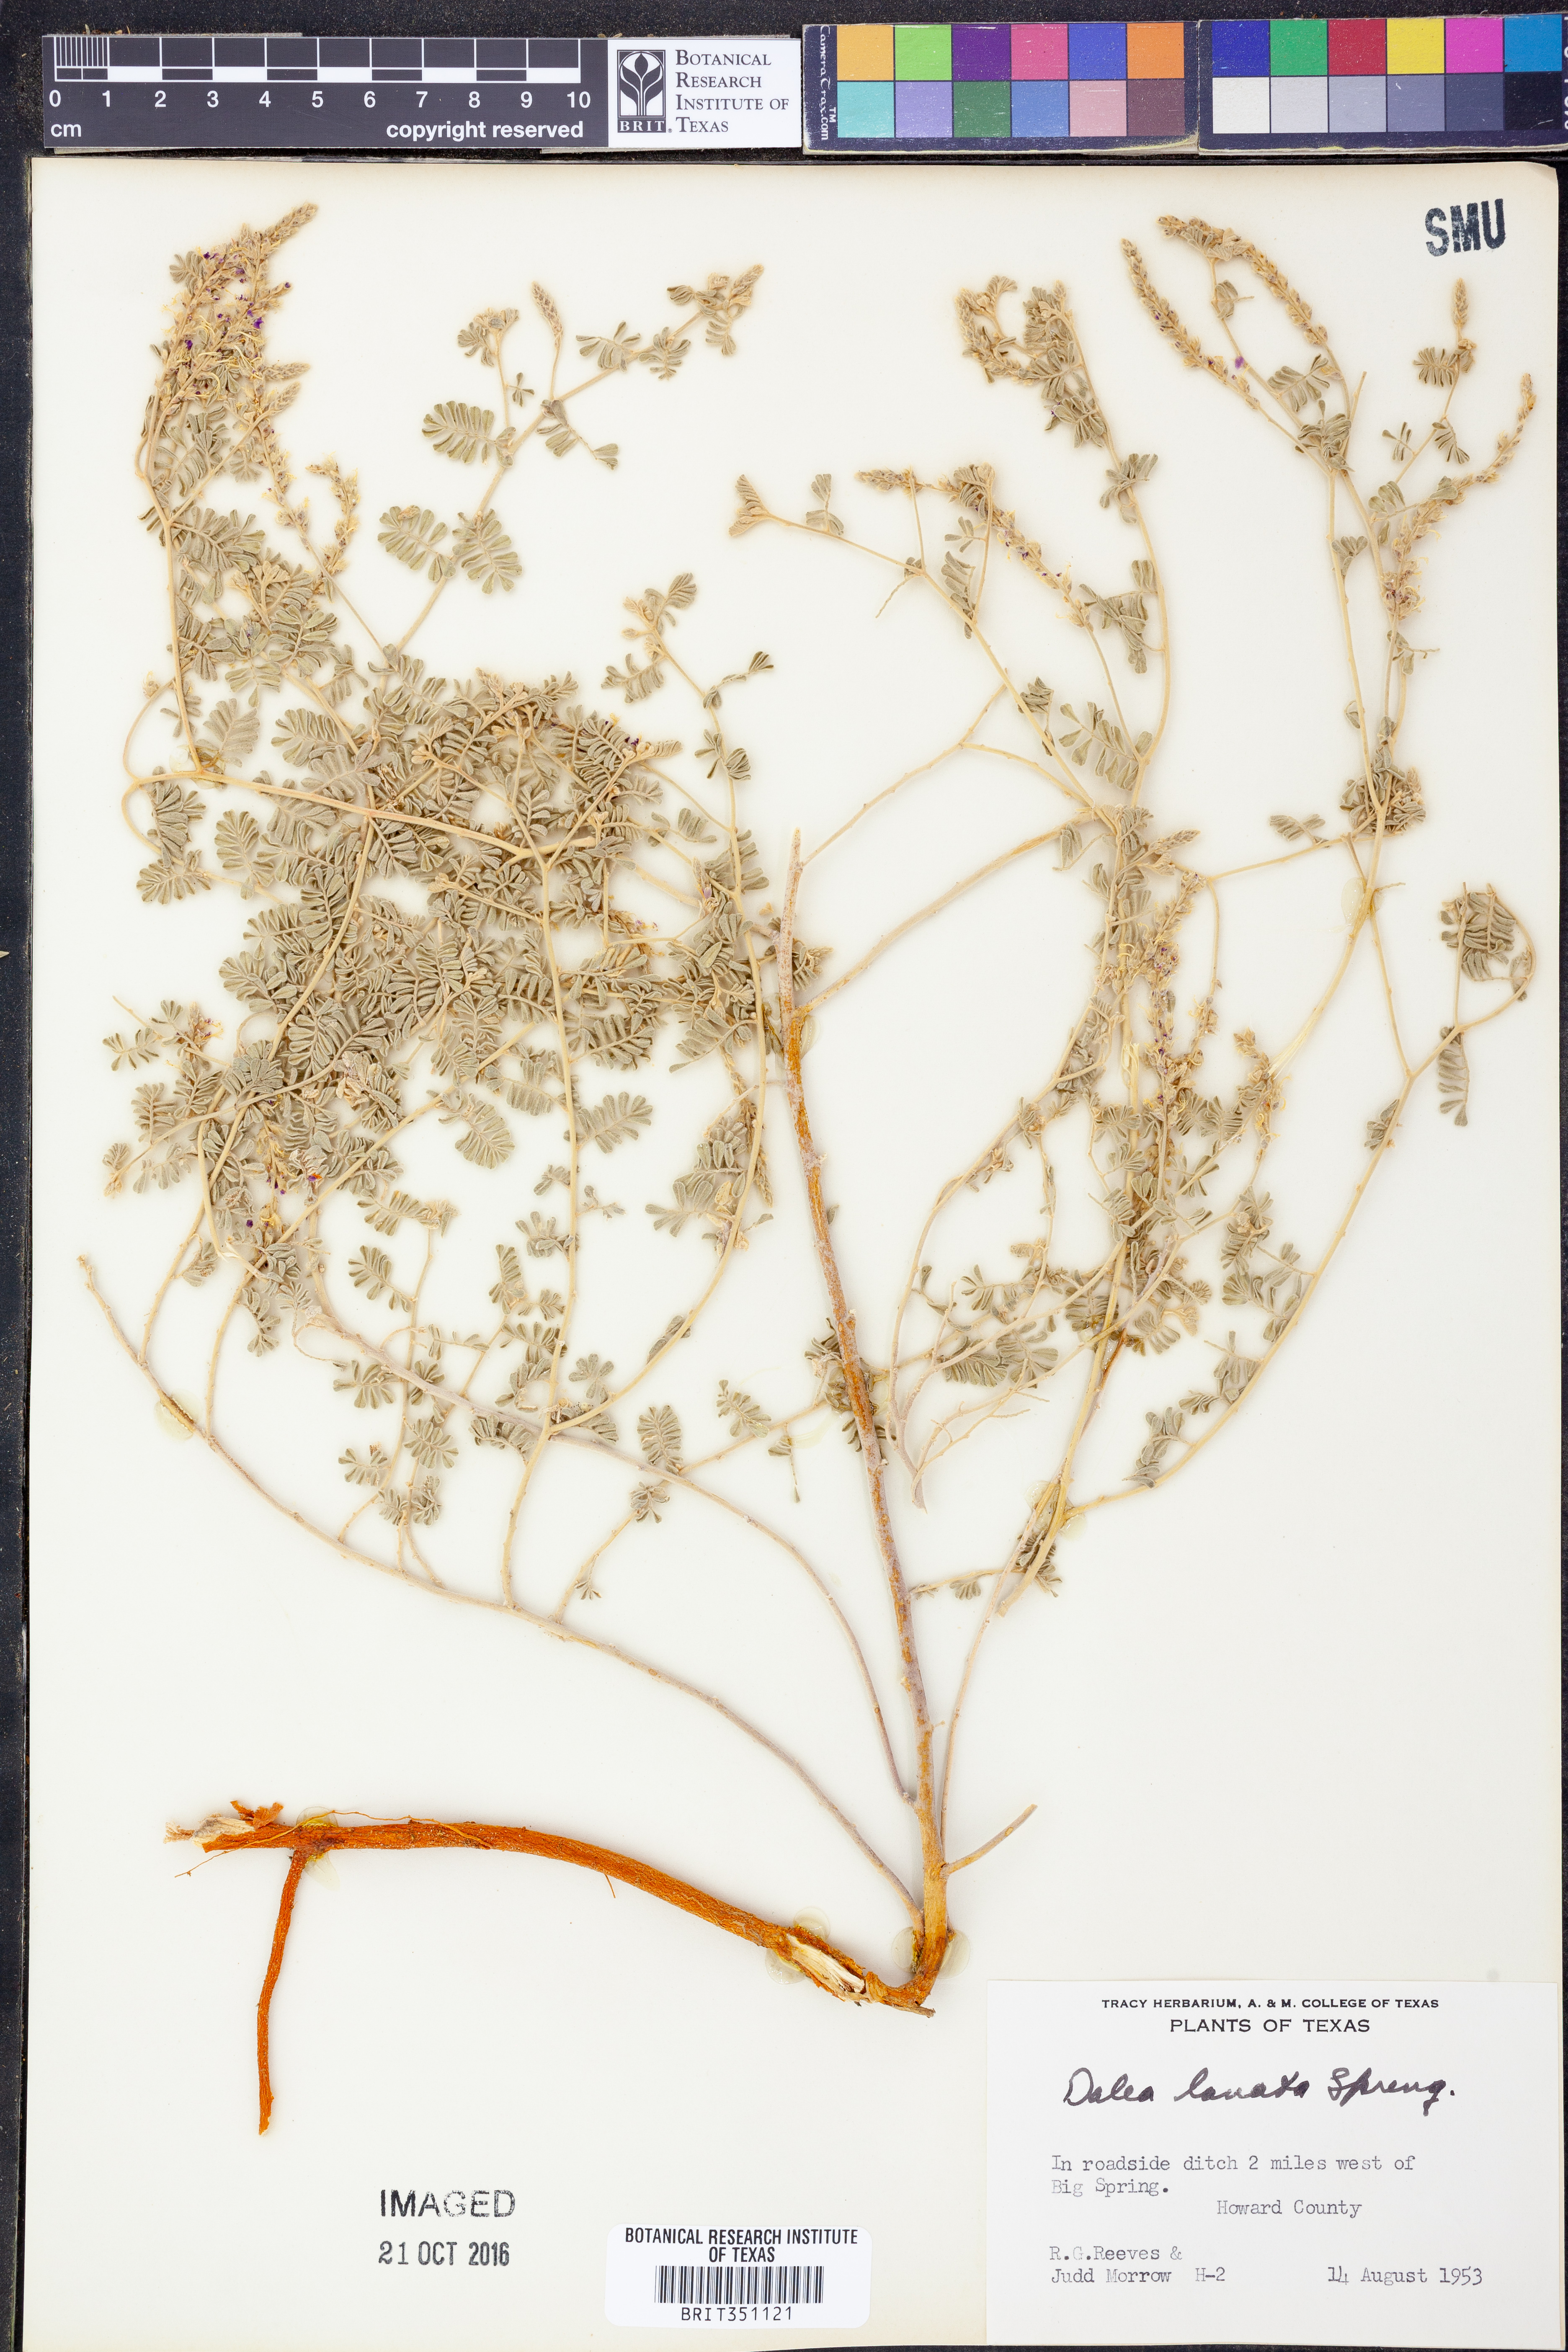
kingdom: Plantae
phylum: Tracheophyta
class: Magnoliopsida
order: Fabales
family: Fabaceae
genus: Dalea
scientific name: Dalea lanata
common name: Woolly dalea
